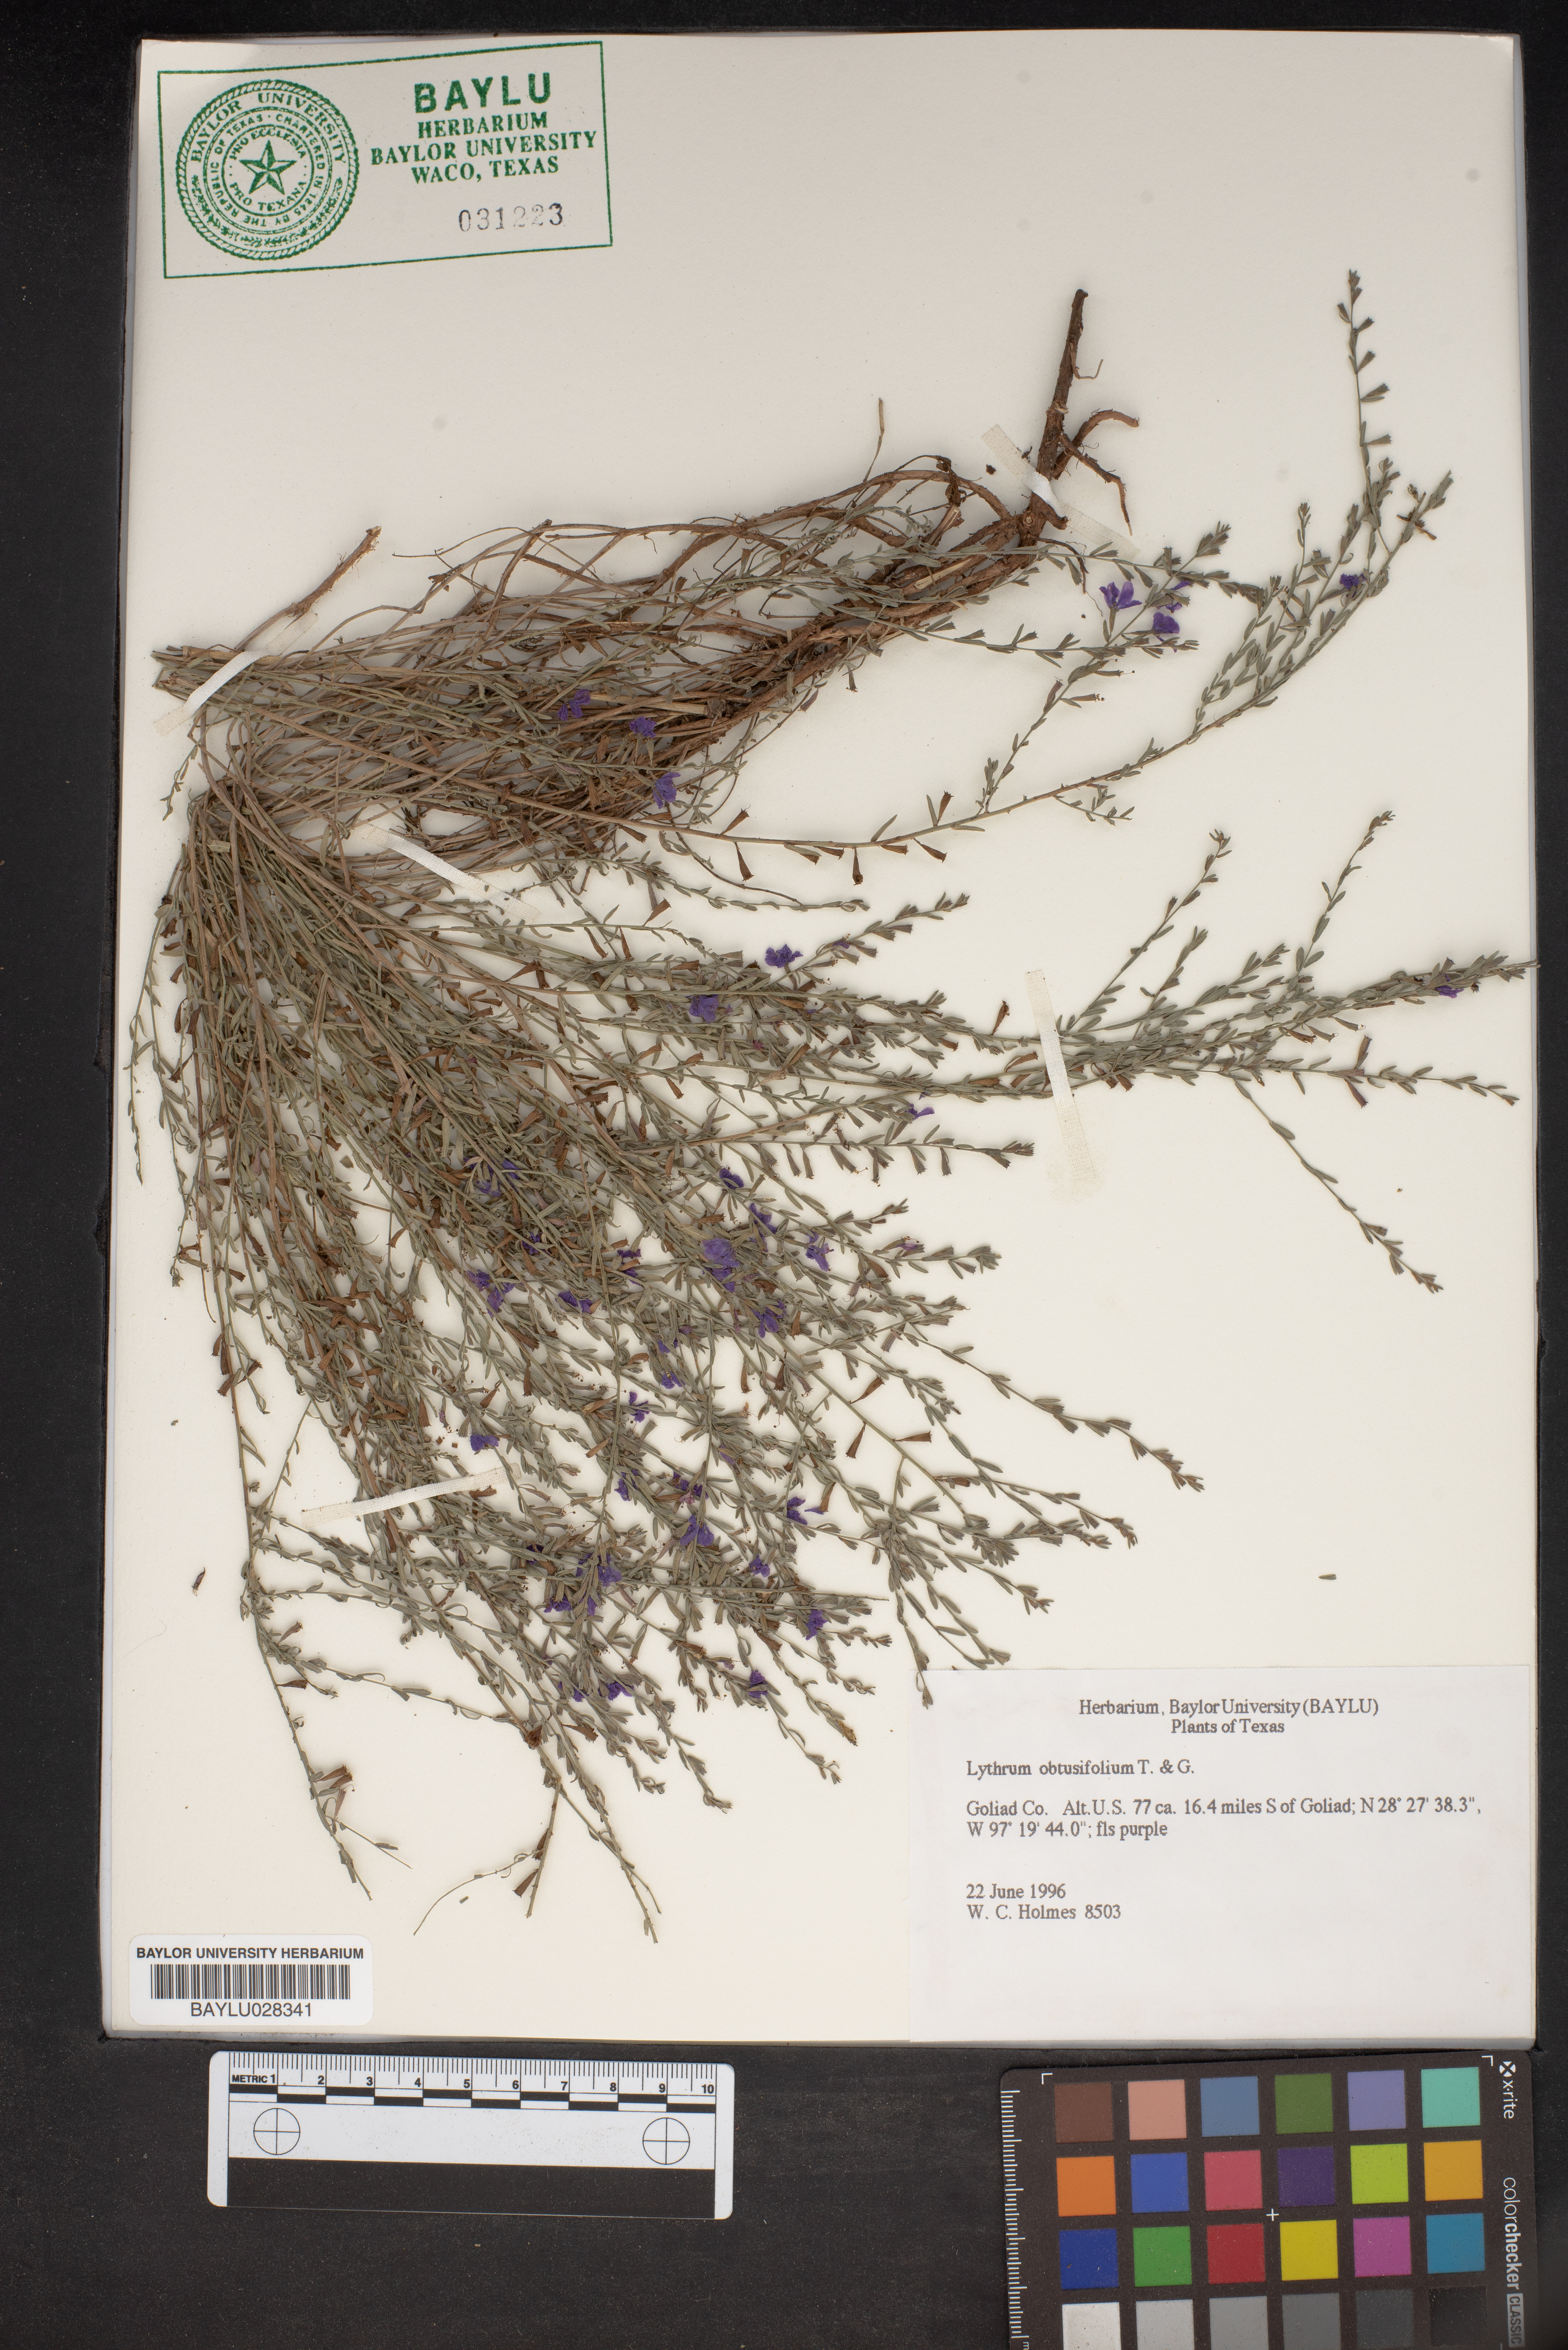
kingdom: Plantae
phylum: Tracheophyta
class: Magnoliopsida
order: Myrtales
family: Lythraceae
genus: Lythrum
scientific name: Lythrum
